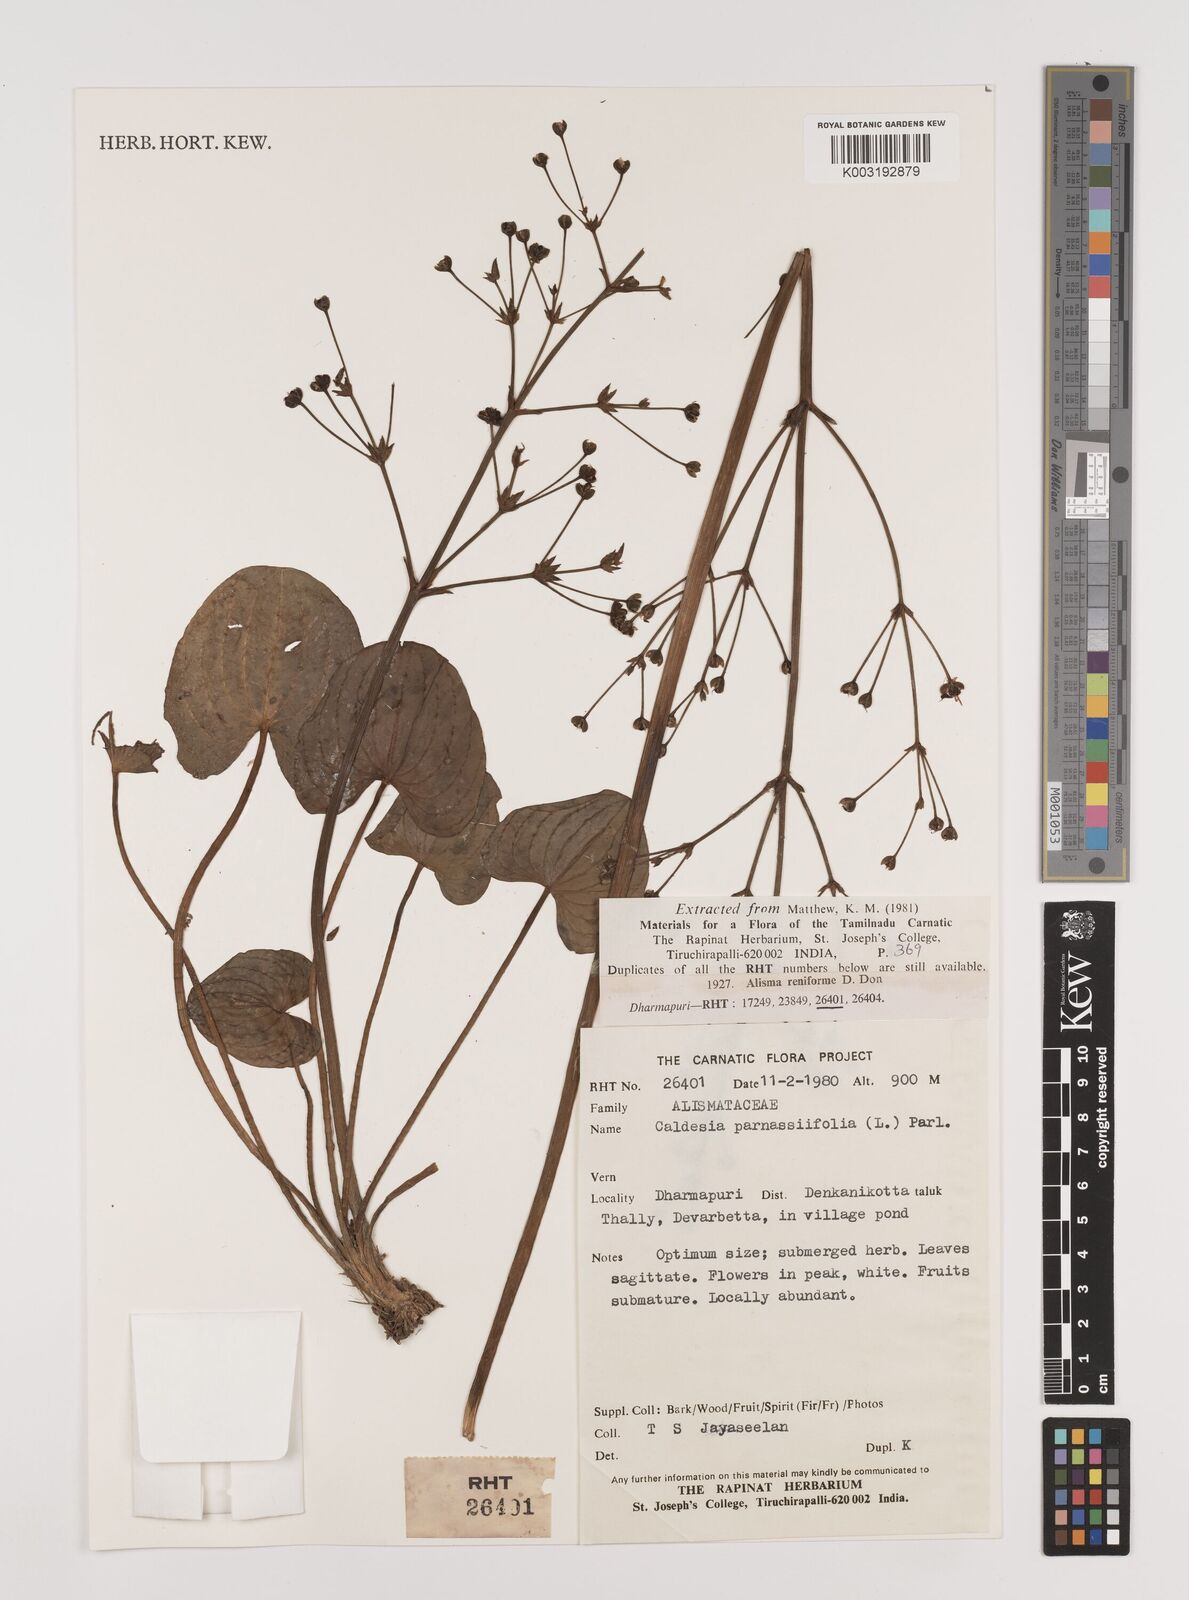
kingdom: Plantae
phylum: Tracheophyta
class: Liliopsida
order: Alismatales
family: Alismataceae
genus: Caldesia
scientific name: Caldesia parnassifolia
